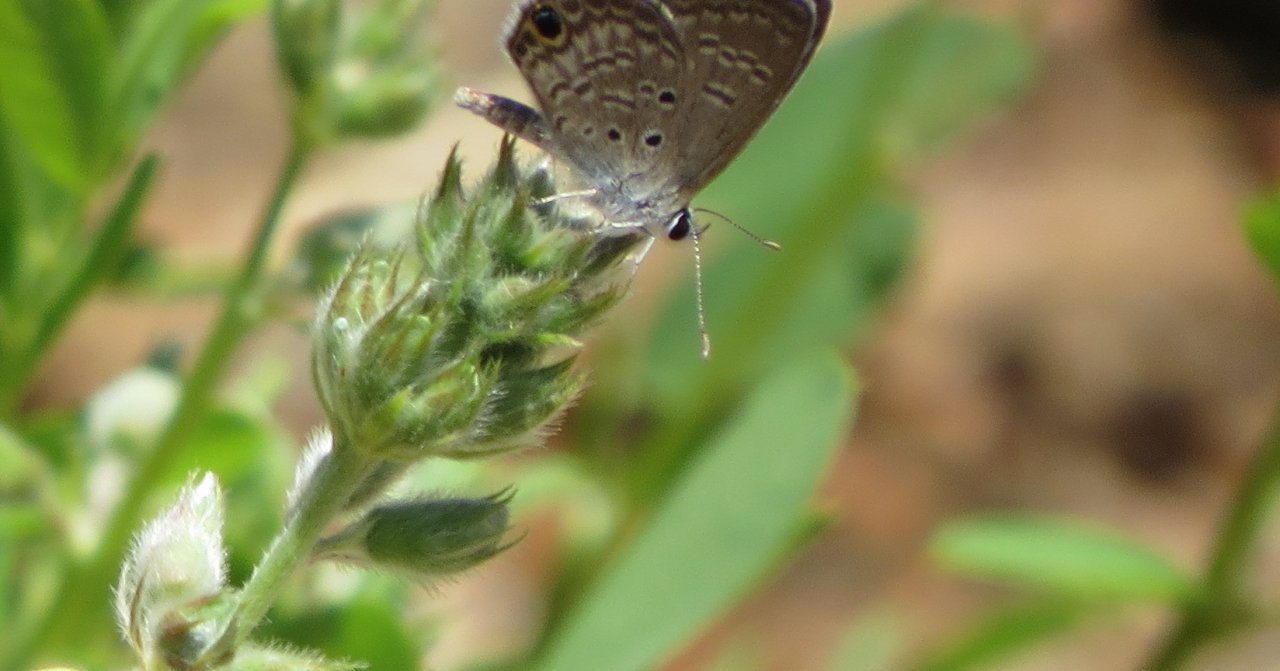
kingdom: Animalia
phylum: Arthropoda
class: Insecta
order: Lepidoptera
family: Lycaenidae
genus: Hemiargus
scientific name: Hemiargus ceraunus
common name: Ceraunus Blue
